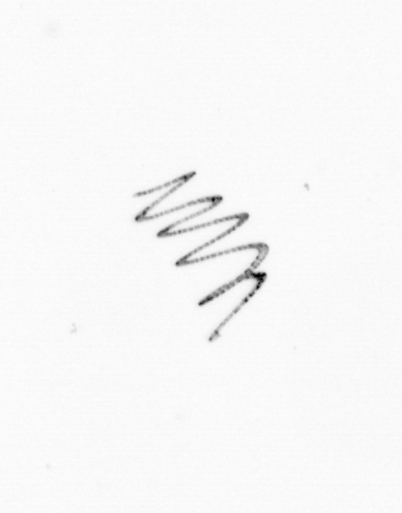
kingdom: Chromista
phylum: Ochrophyta
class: Bacillariophyceae
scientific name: Bacillariophyceae
